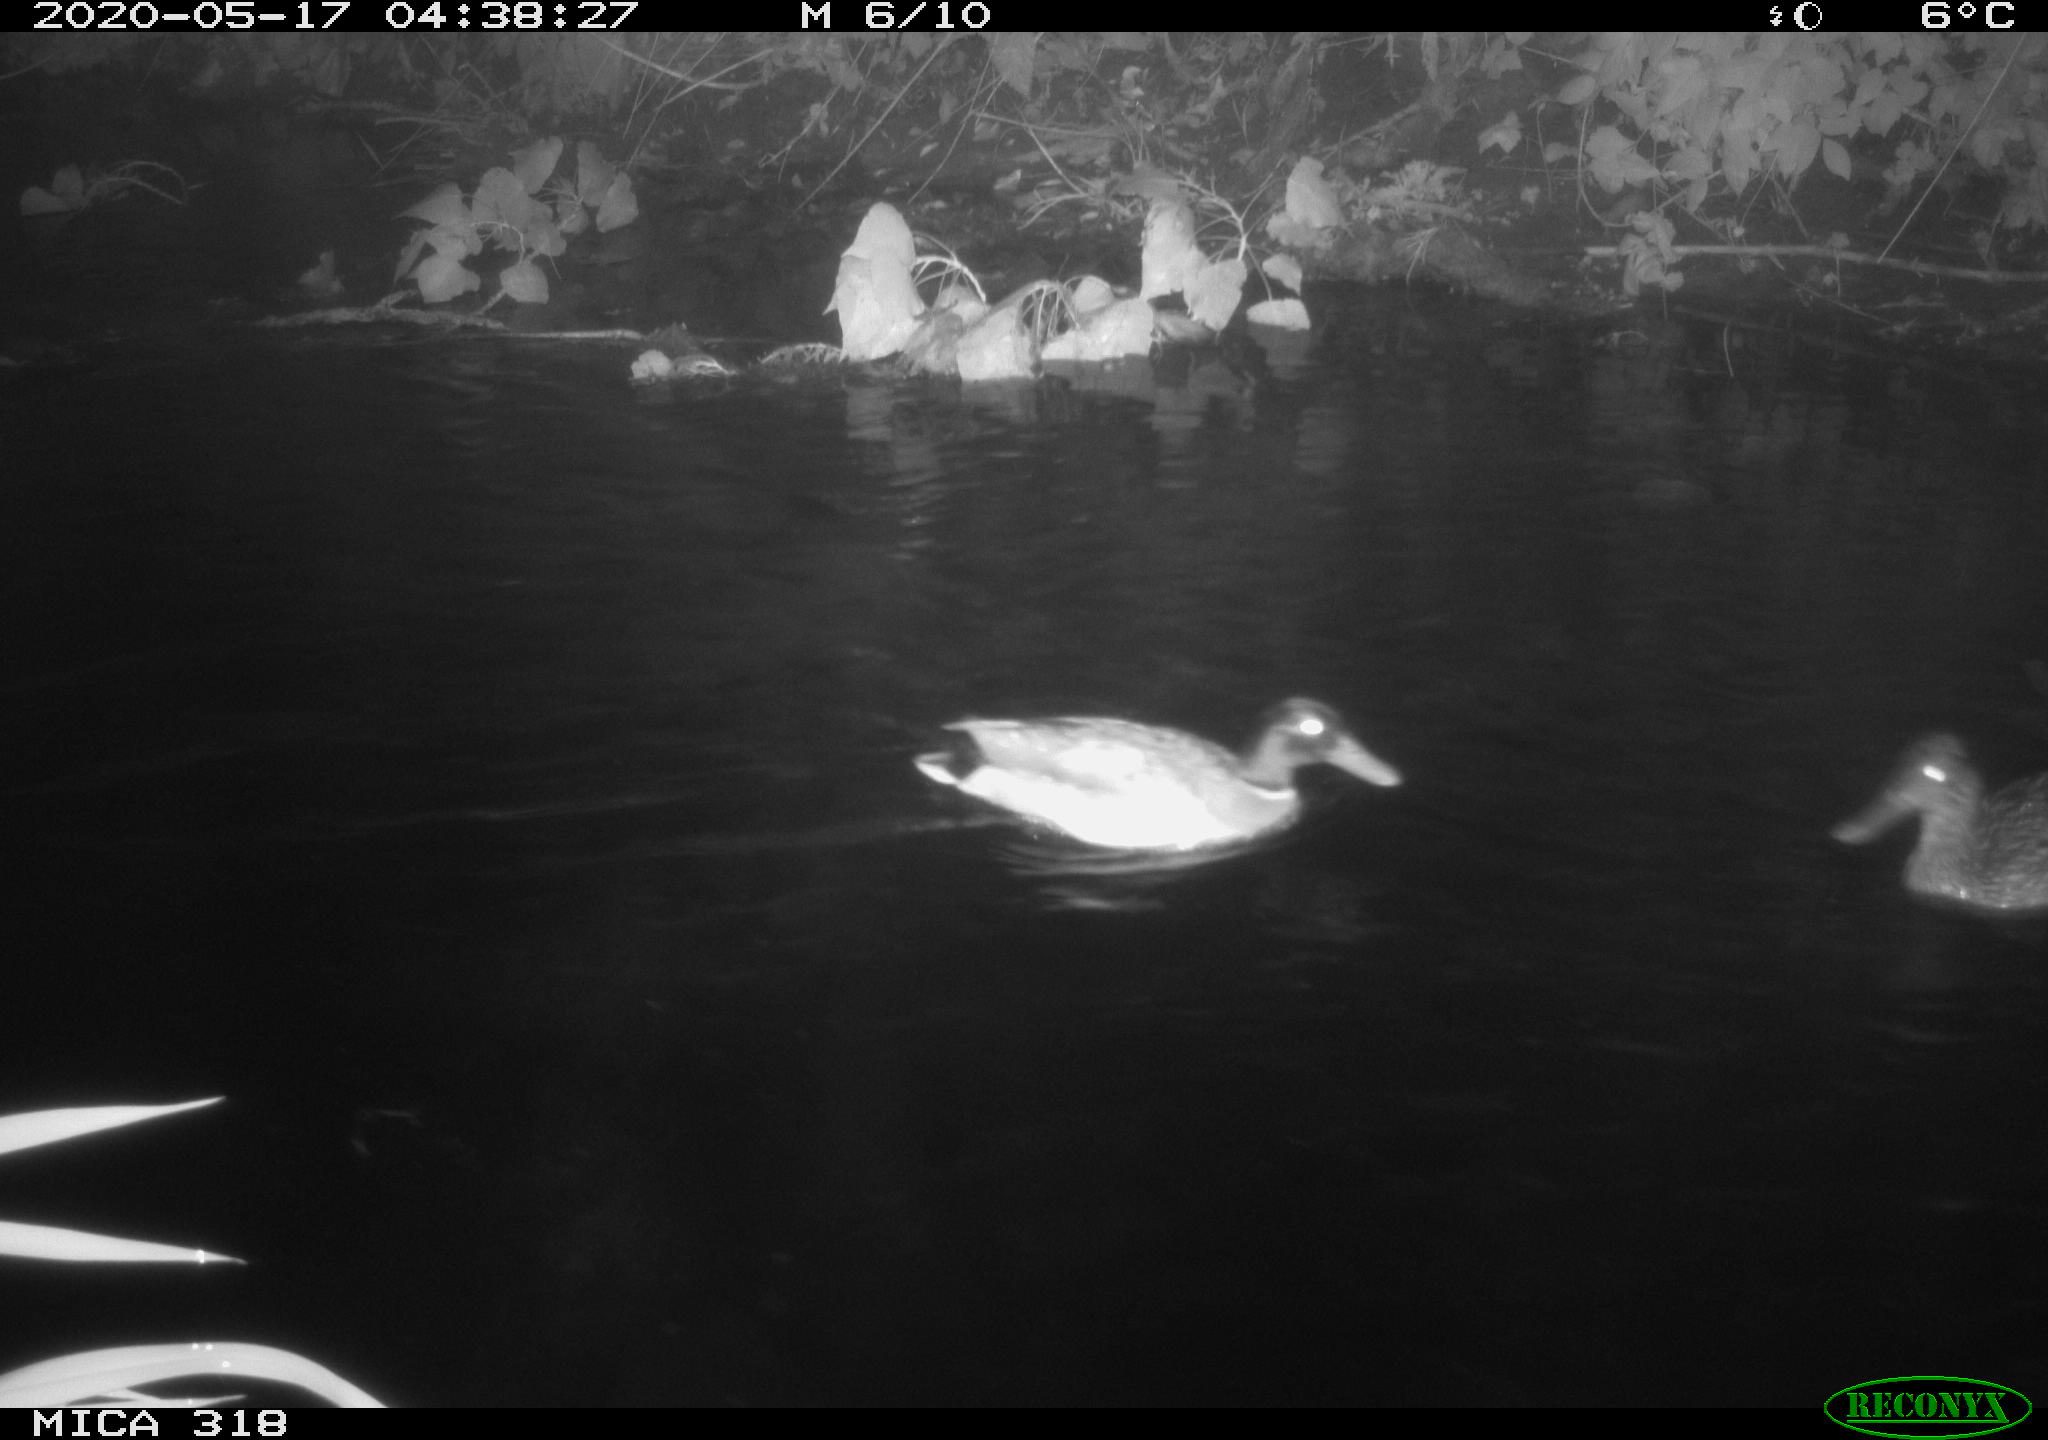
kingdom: Animalia
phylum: Chordata
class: Aves
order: Anseriformes
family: Anatidae
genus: Anas
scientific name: Anas platyrhynchos
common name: Mallard
